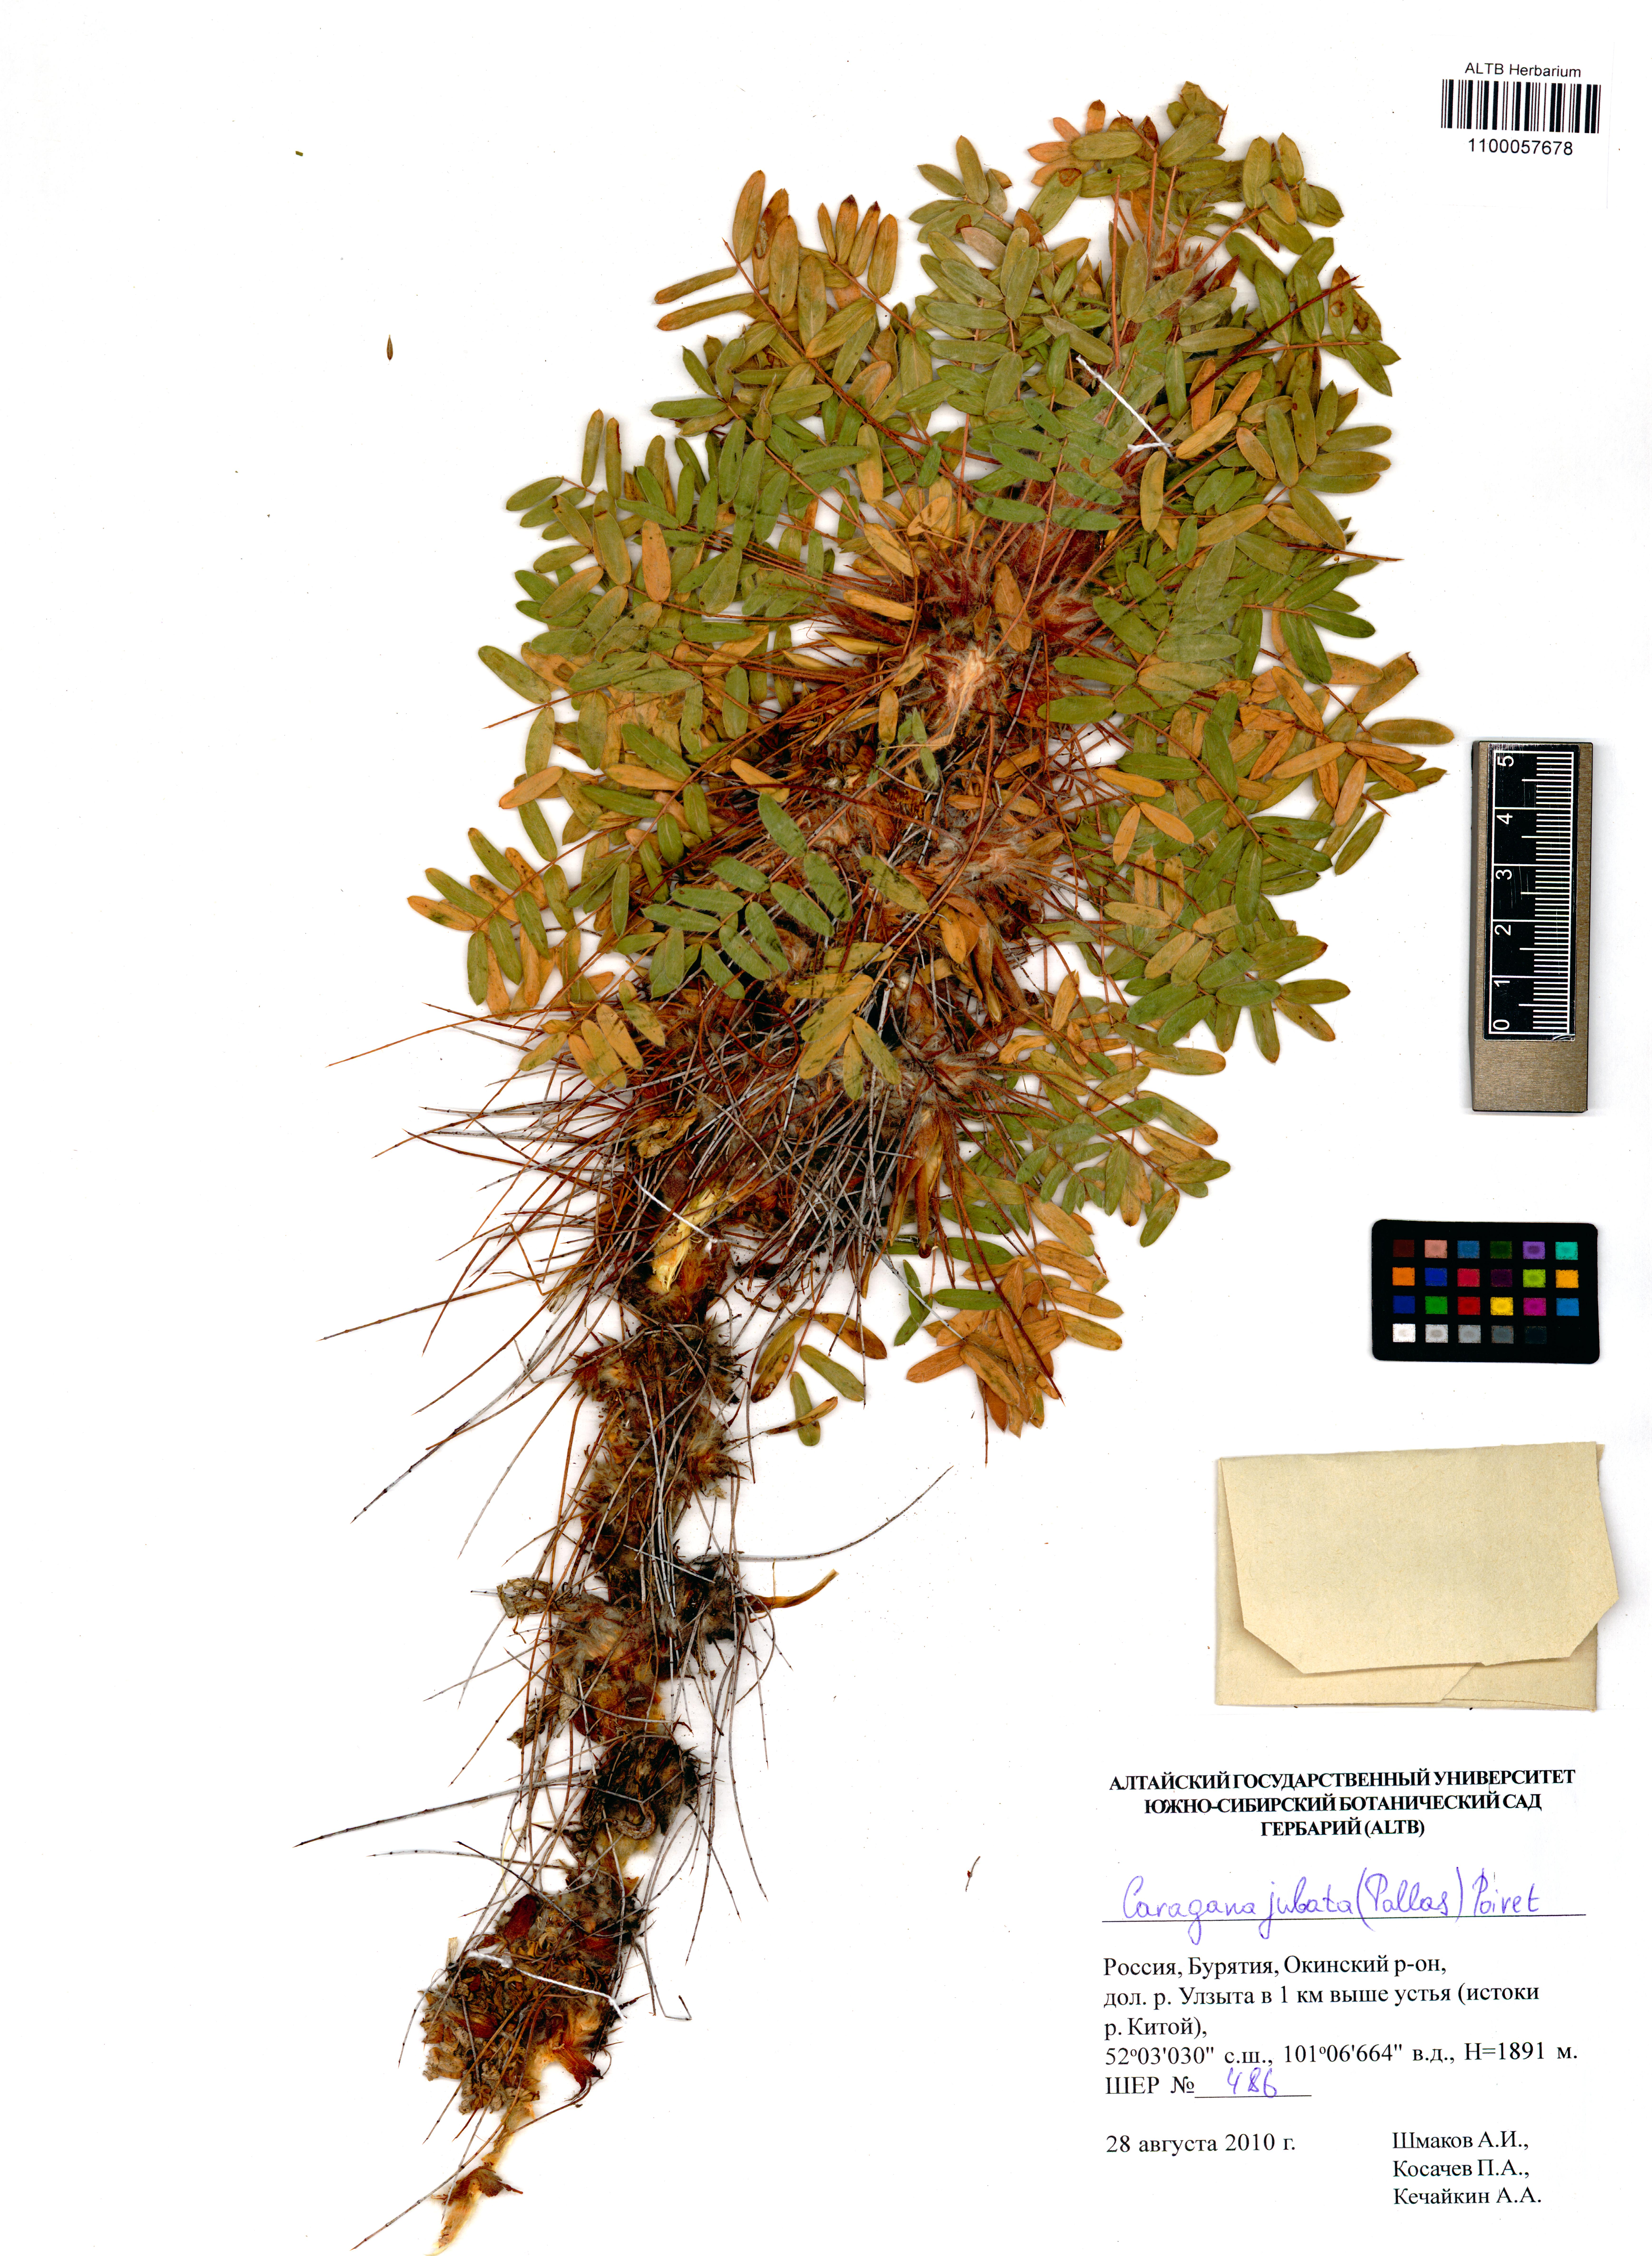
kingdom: Plantae
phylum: Tracheophyta
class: Magnoliopsida
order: Fabales
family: Fabaceae
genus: Caragana
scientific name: Caragana jubata
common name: Shag-spine peashrub
